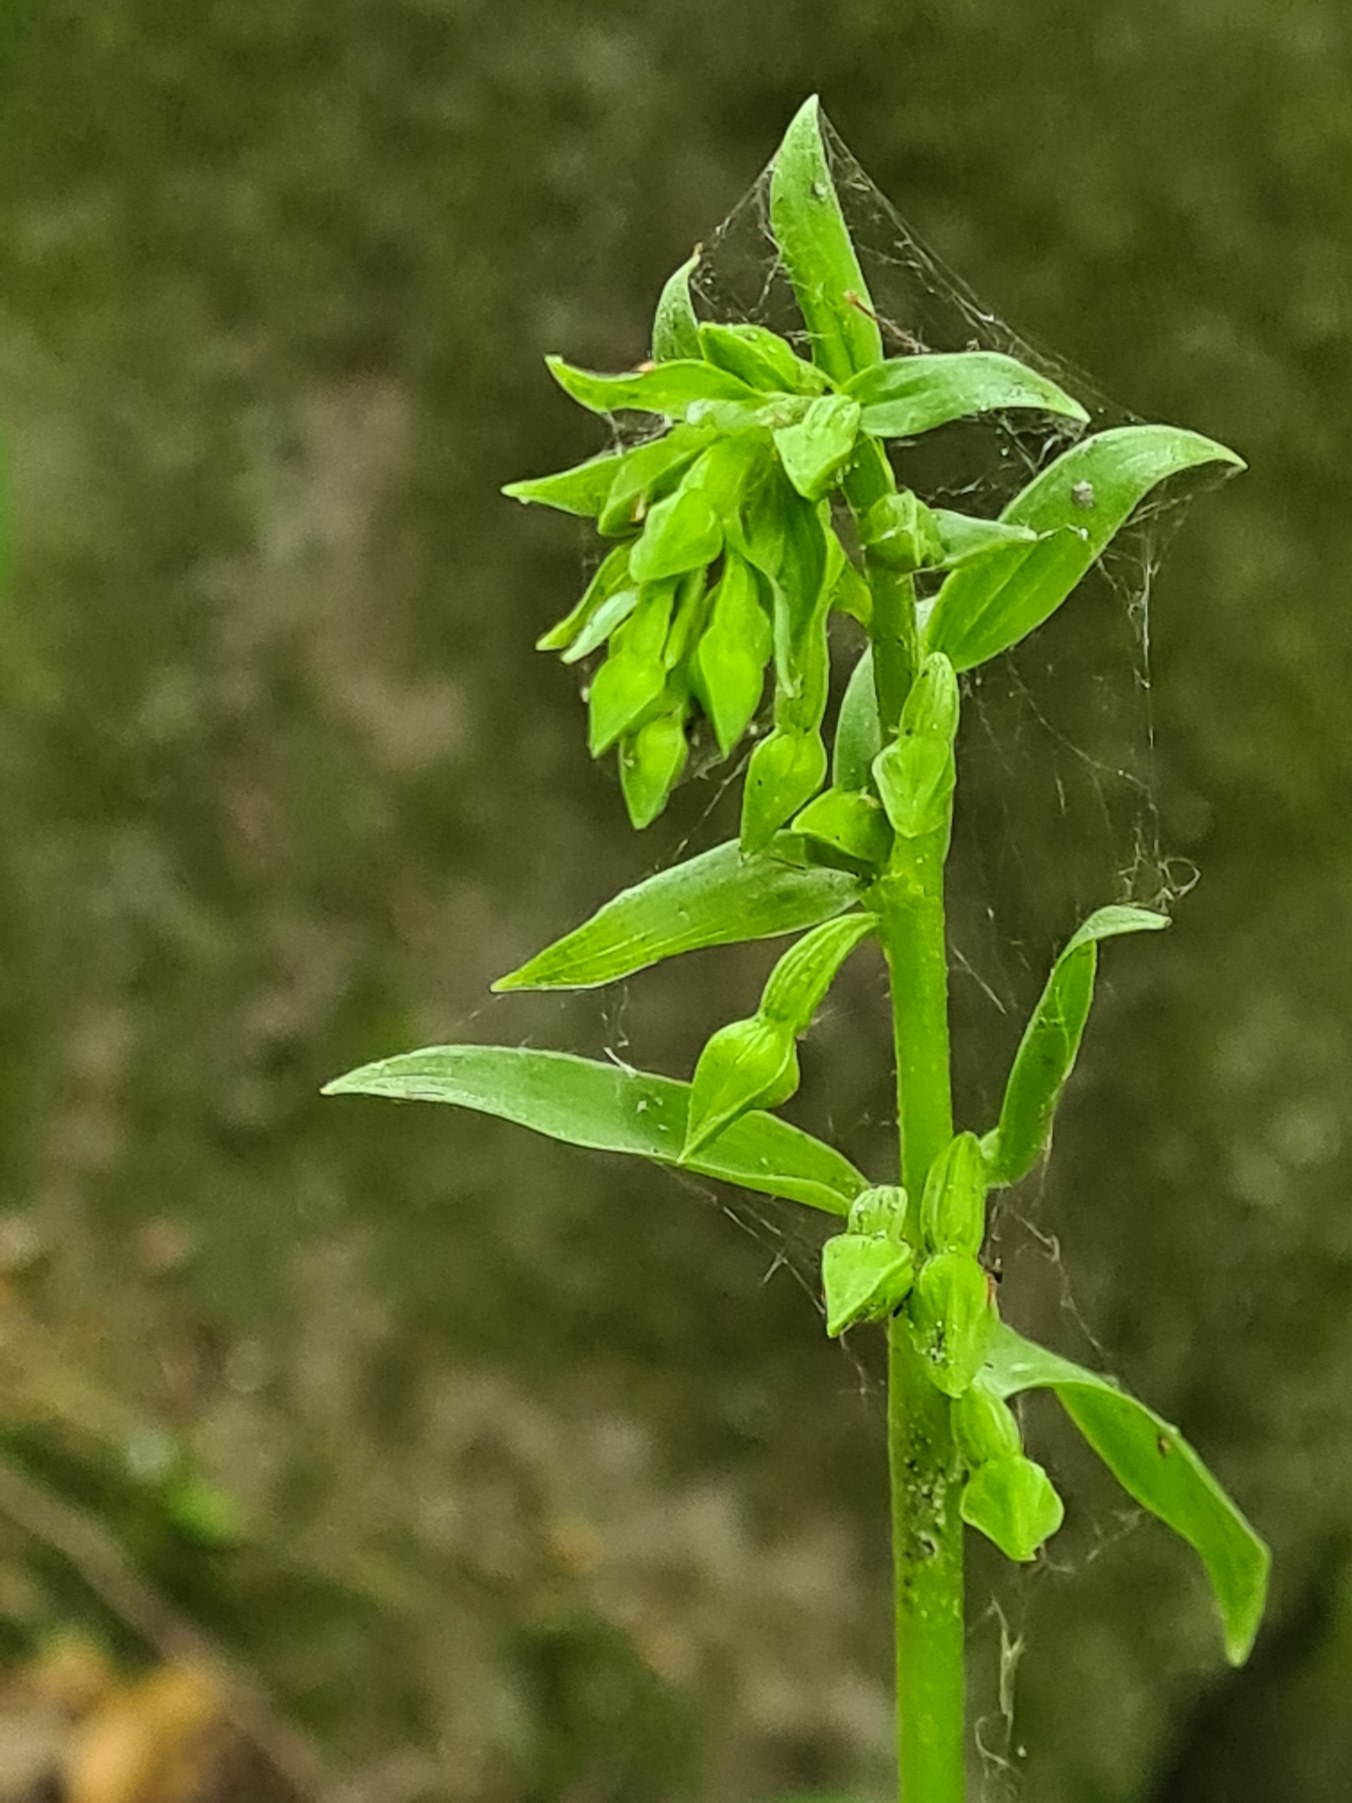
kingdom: Plantae
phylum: Tracheophyta
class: Liliopsida
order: Asparagales
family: Orchidaceae
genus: Epipactis
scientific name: Epipactis phyllanthes
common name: Nikkende hullæbe
